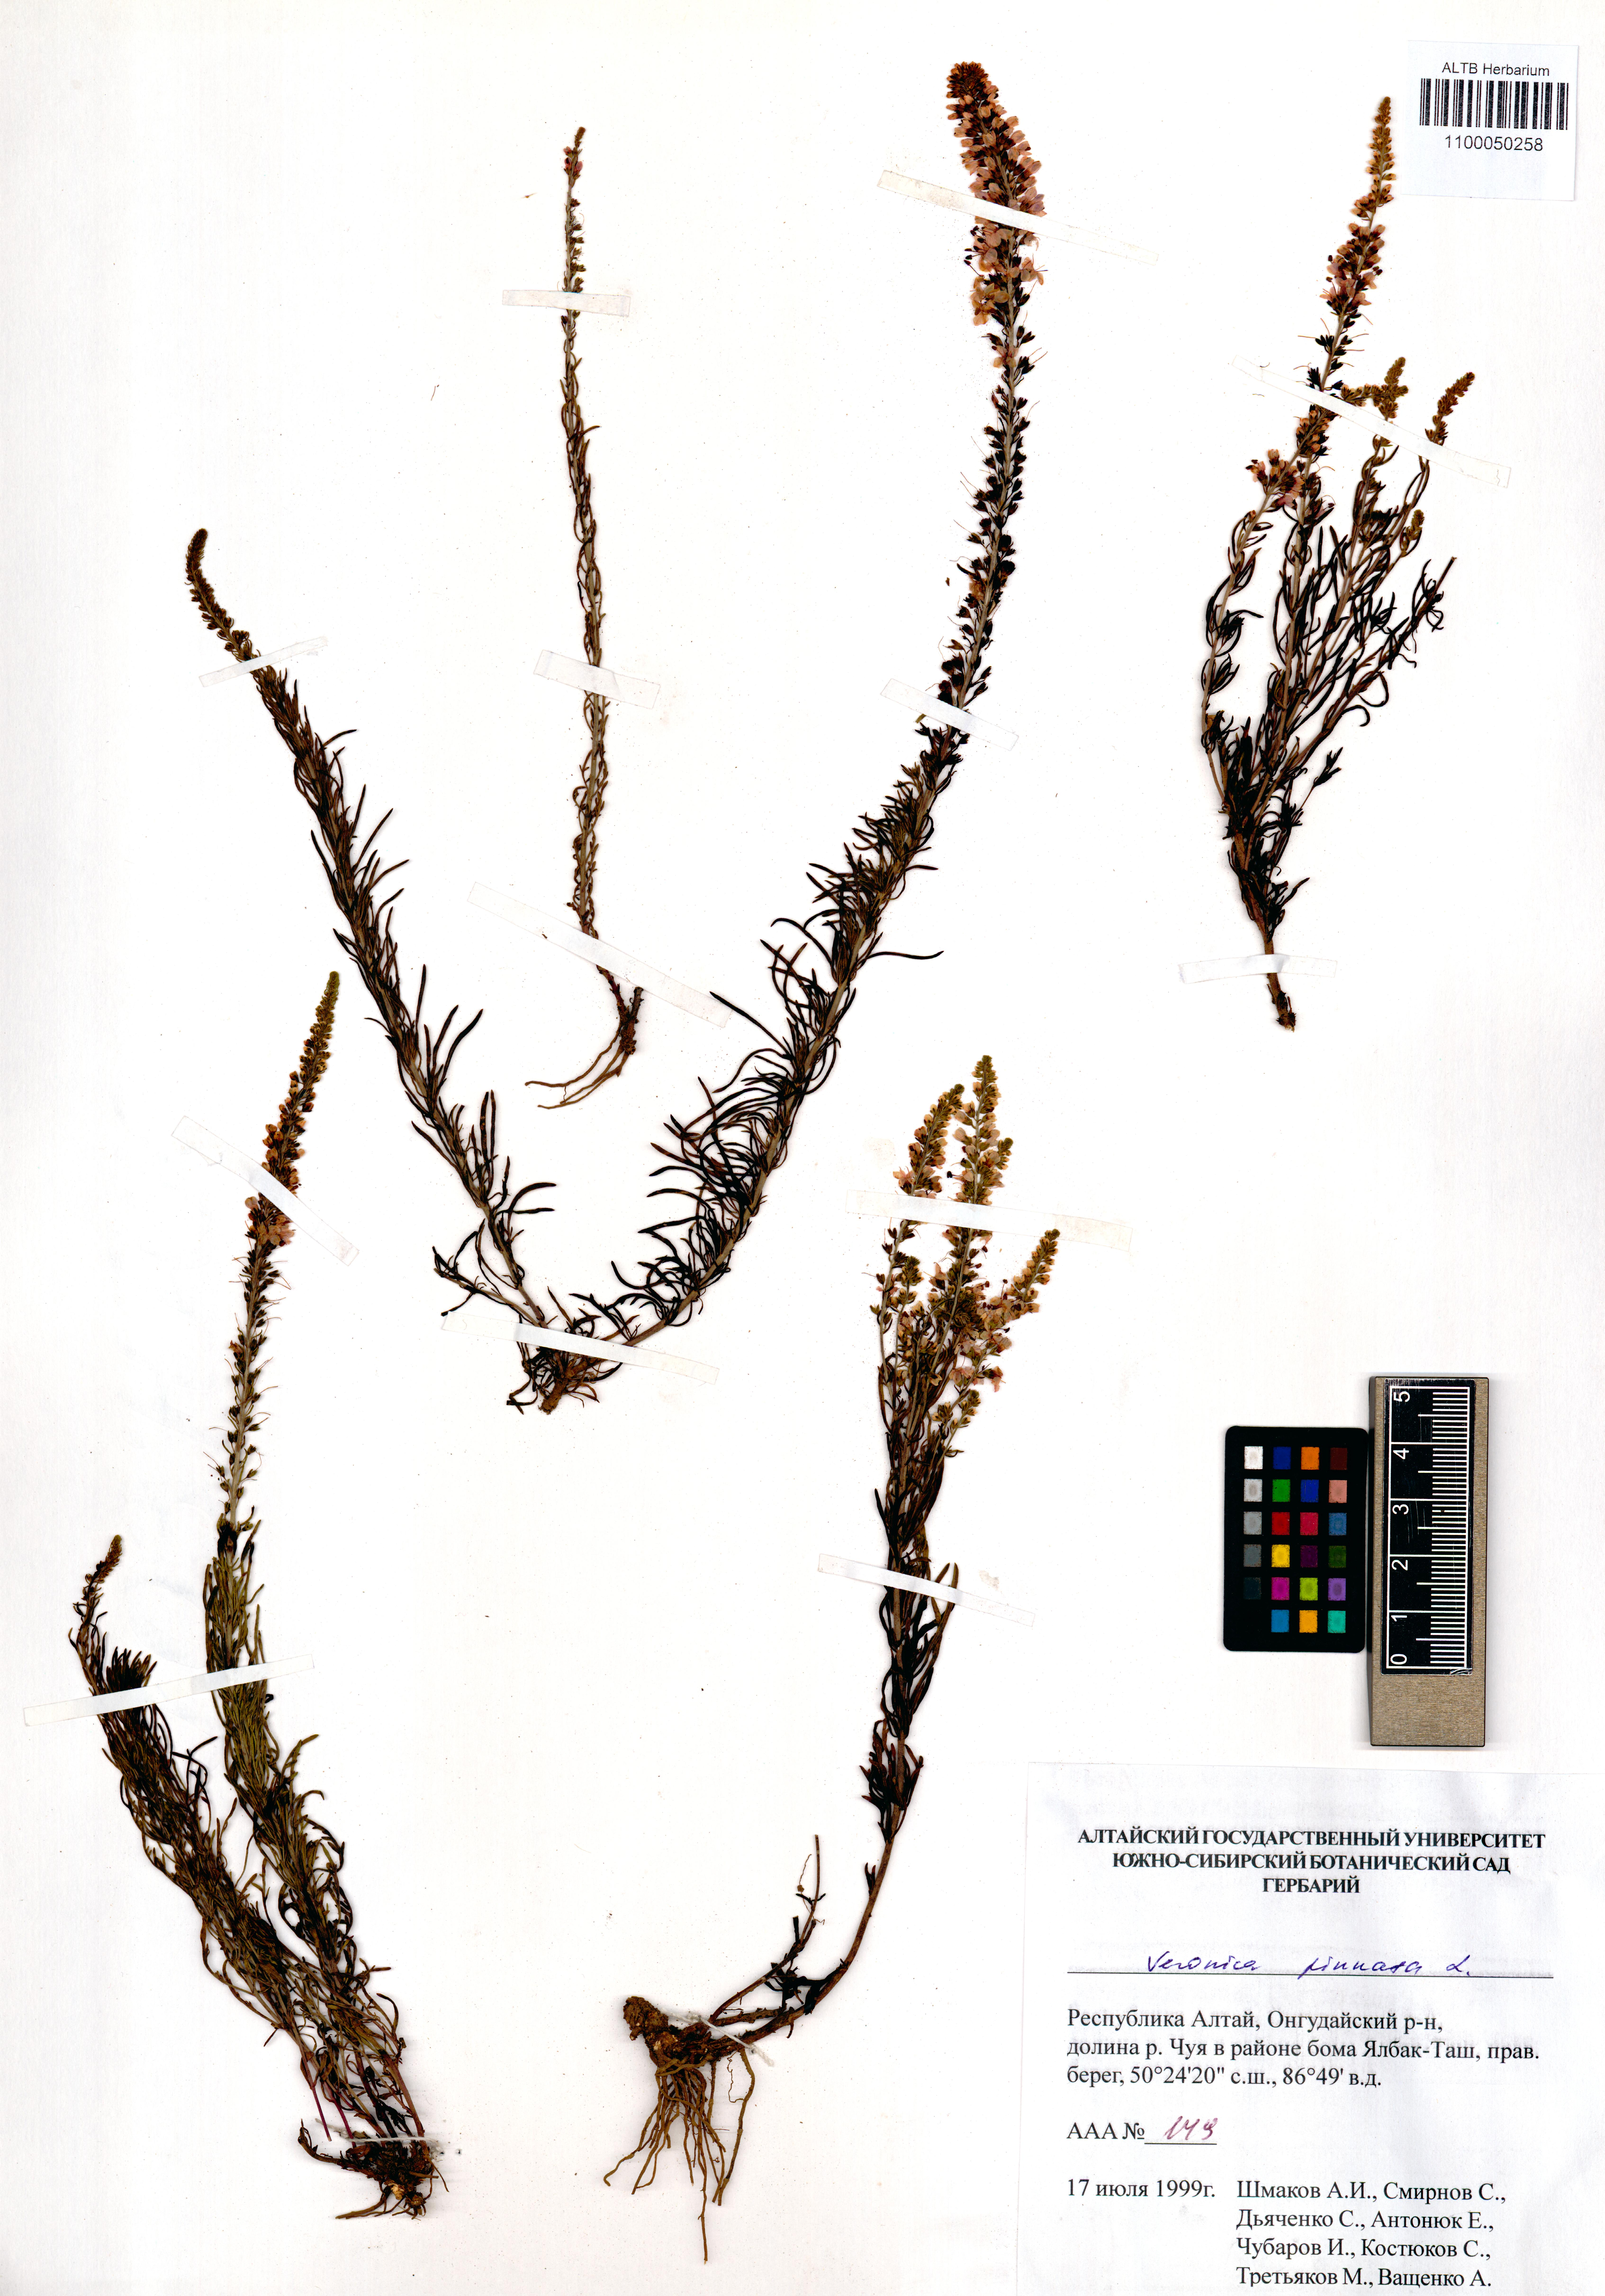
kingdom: Plantae
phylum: Tracheophyta
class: Magnoliopsida
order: Lamiales
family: Plantaginaceae
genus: Veronica
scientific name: Veronica pinnata
